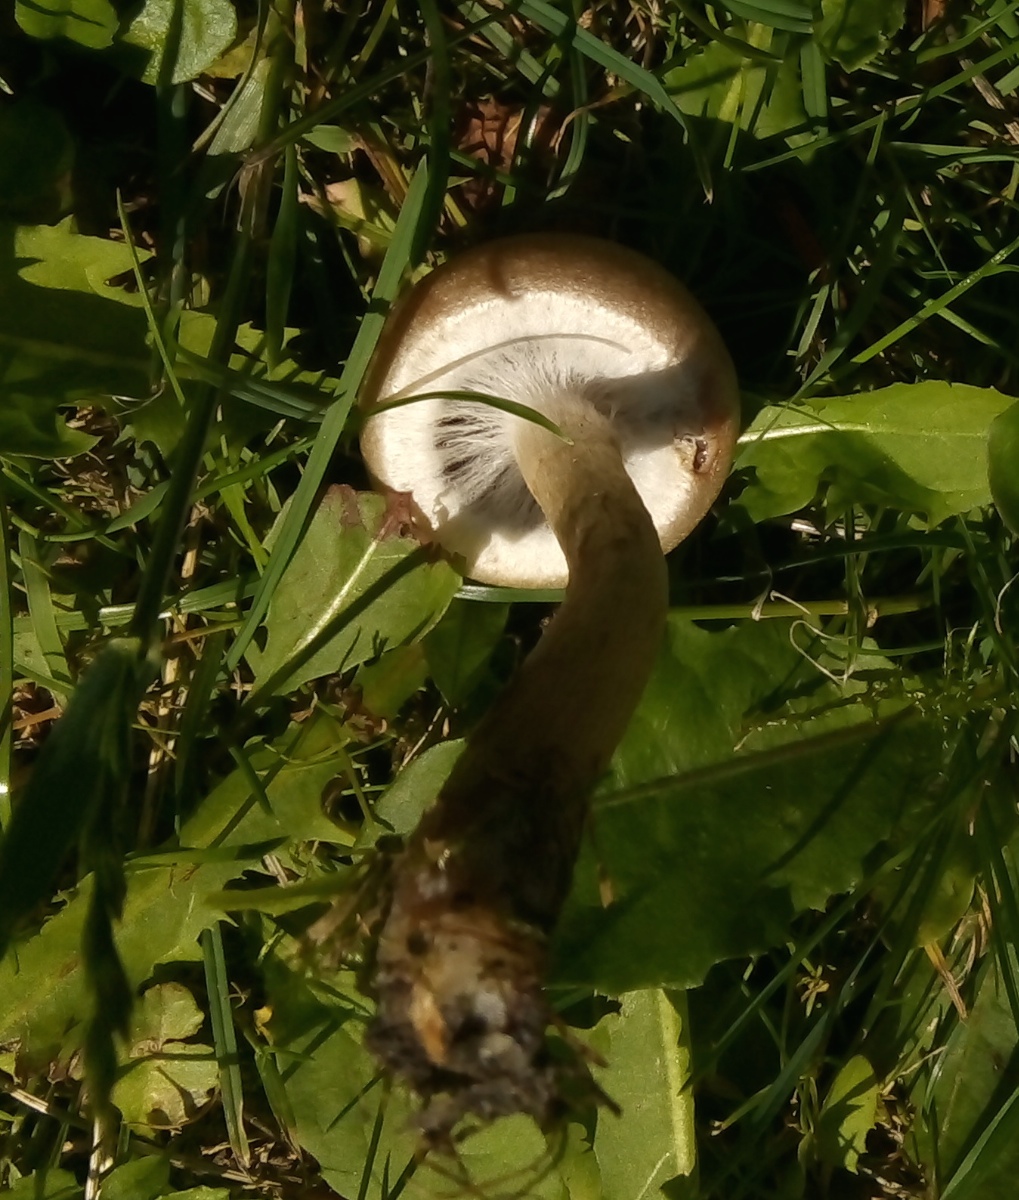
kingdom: Fungi
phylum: Basidiomycota
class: Agaricomycetes
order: Agaricales
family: Psathyrellaceae
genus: Lacrymaria
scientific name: Lacrymaria lacrymabunda
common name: grædende mørkhat
